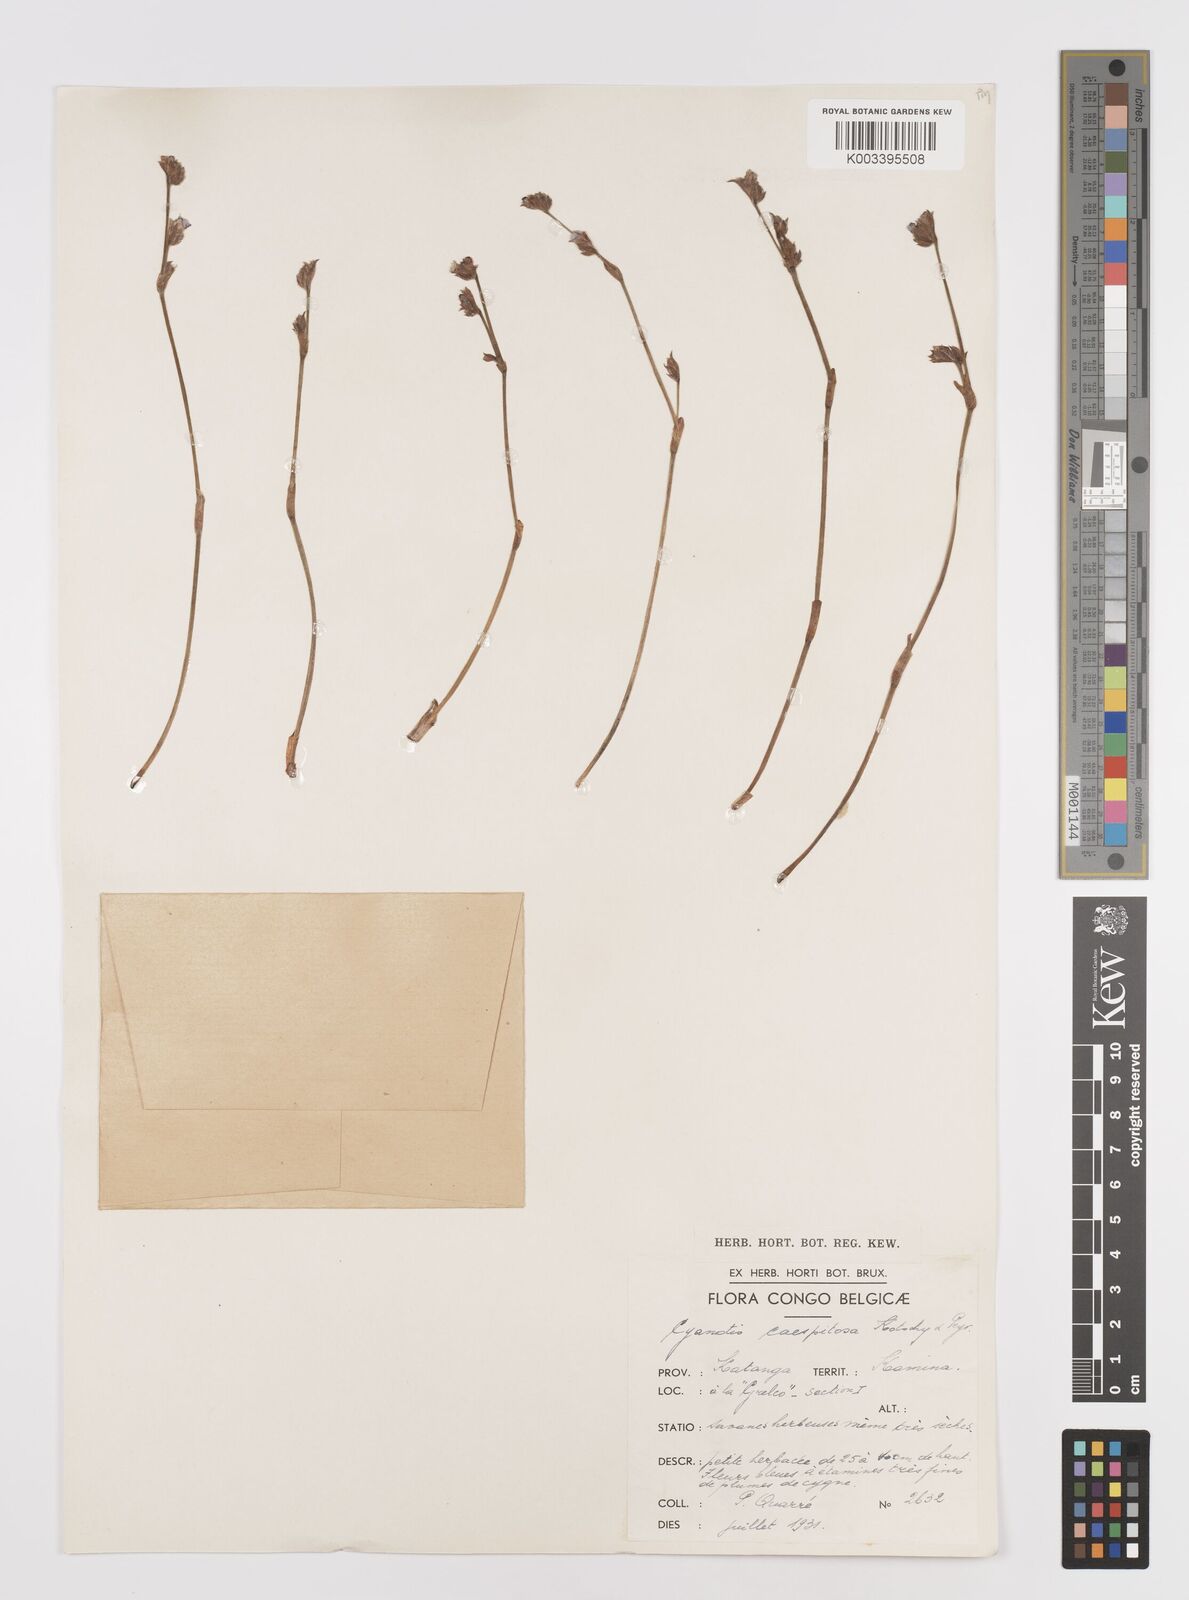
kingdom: Plantae
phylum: Tracheophyta
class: Liliopsida
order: Commelinales
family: Commelinaceae
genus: Cyanotis
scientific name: Cyanotis caespitosa
